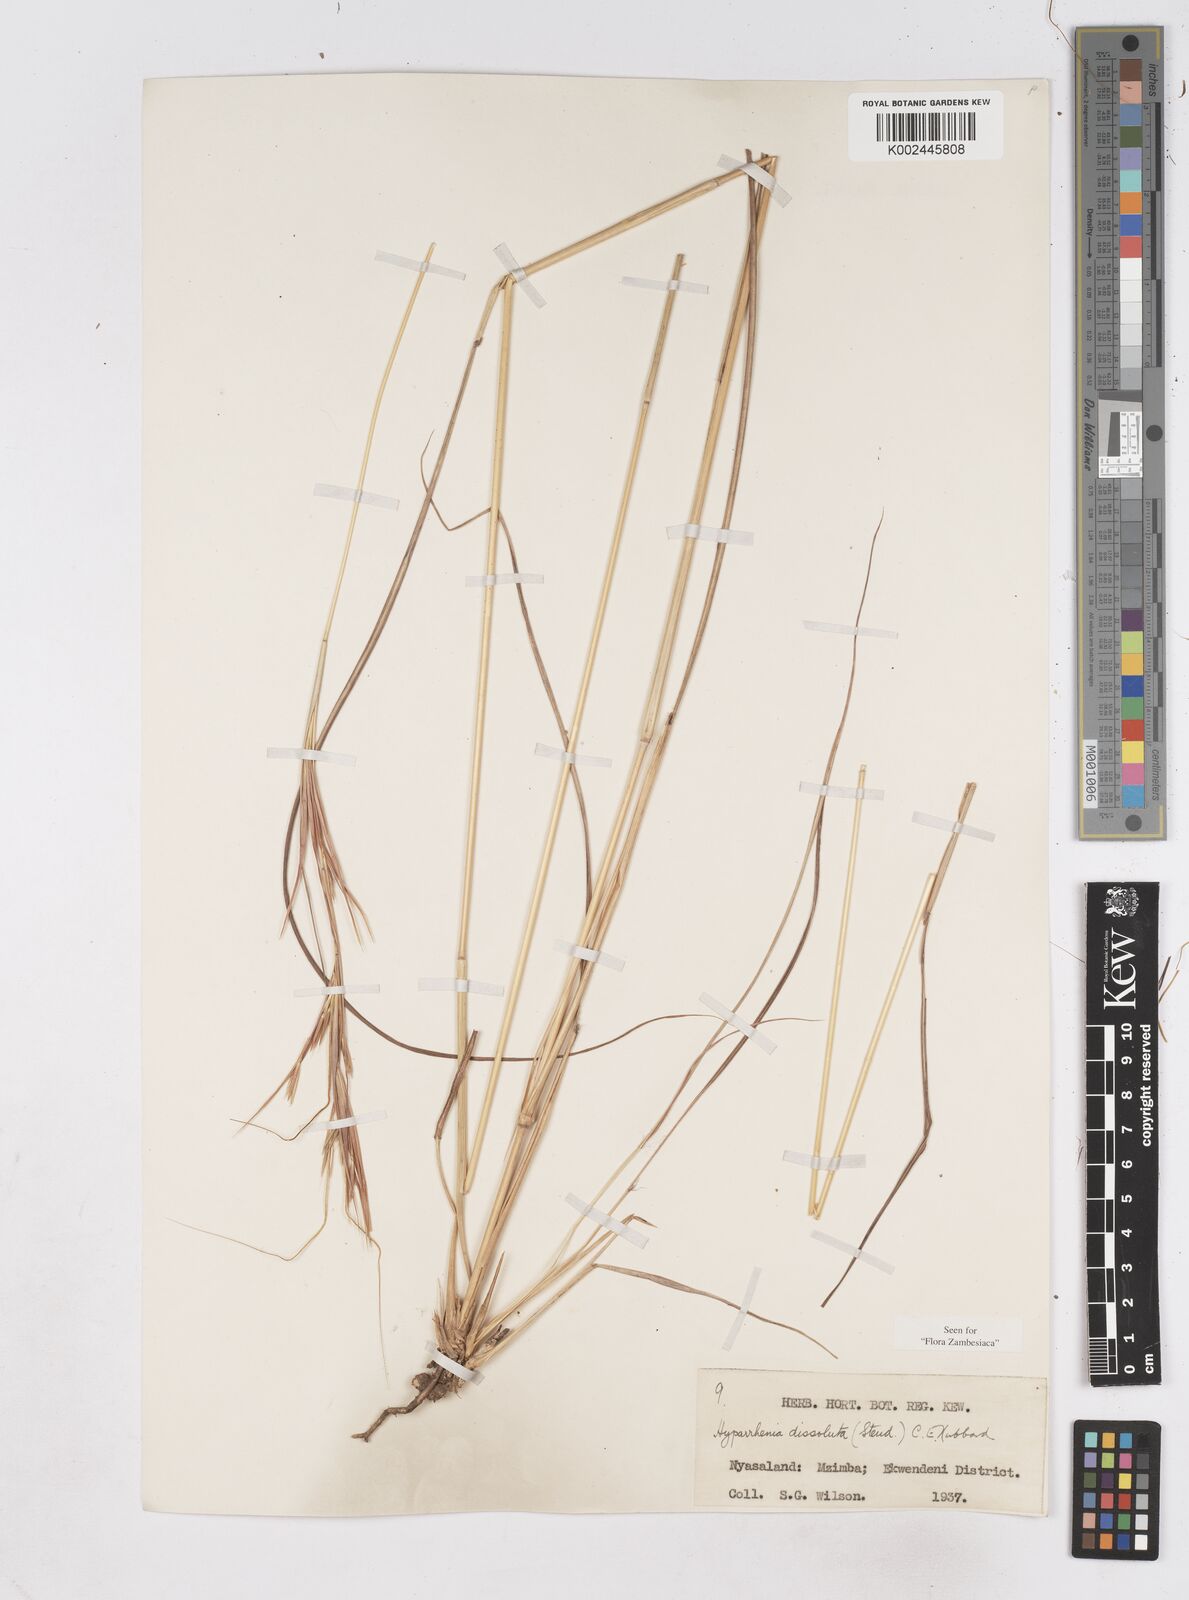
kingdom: Plantae
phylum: Tracheophyta
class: Liliopsida
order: Poales
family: Poaceae
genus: Hyperthelia
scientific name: Hyperthelia dissoluta
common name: Yellow thatching grass
